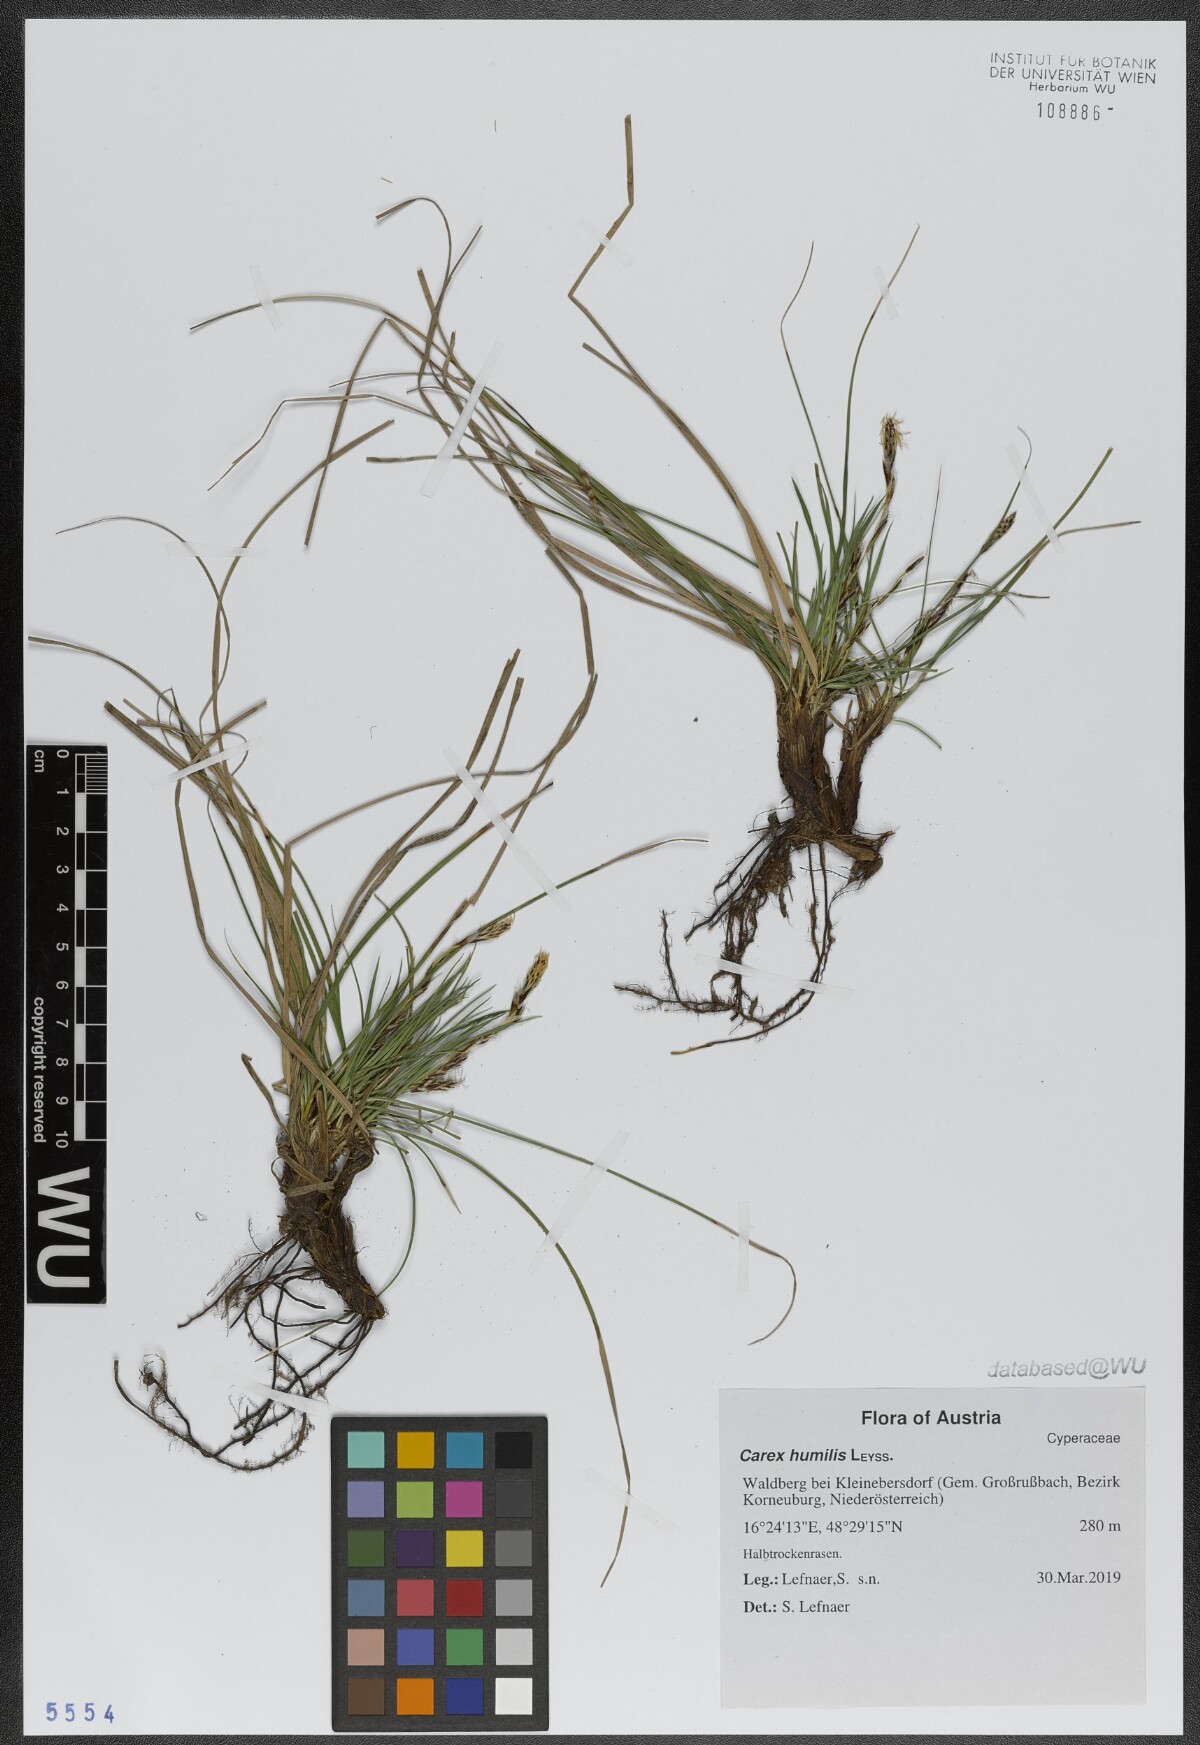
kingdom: Plantae
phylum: Tracheophyta
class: Liliopsida
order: Poales
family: Cyperaceae
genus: Carex
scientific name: Carex humilis
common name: Dwarf sedge
